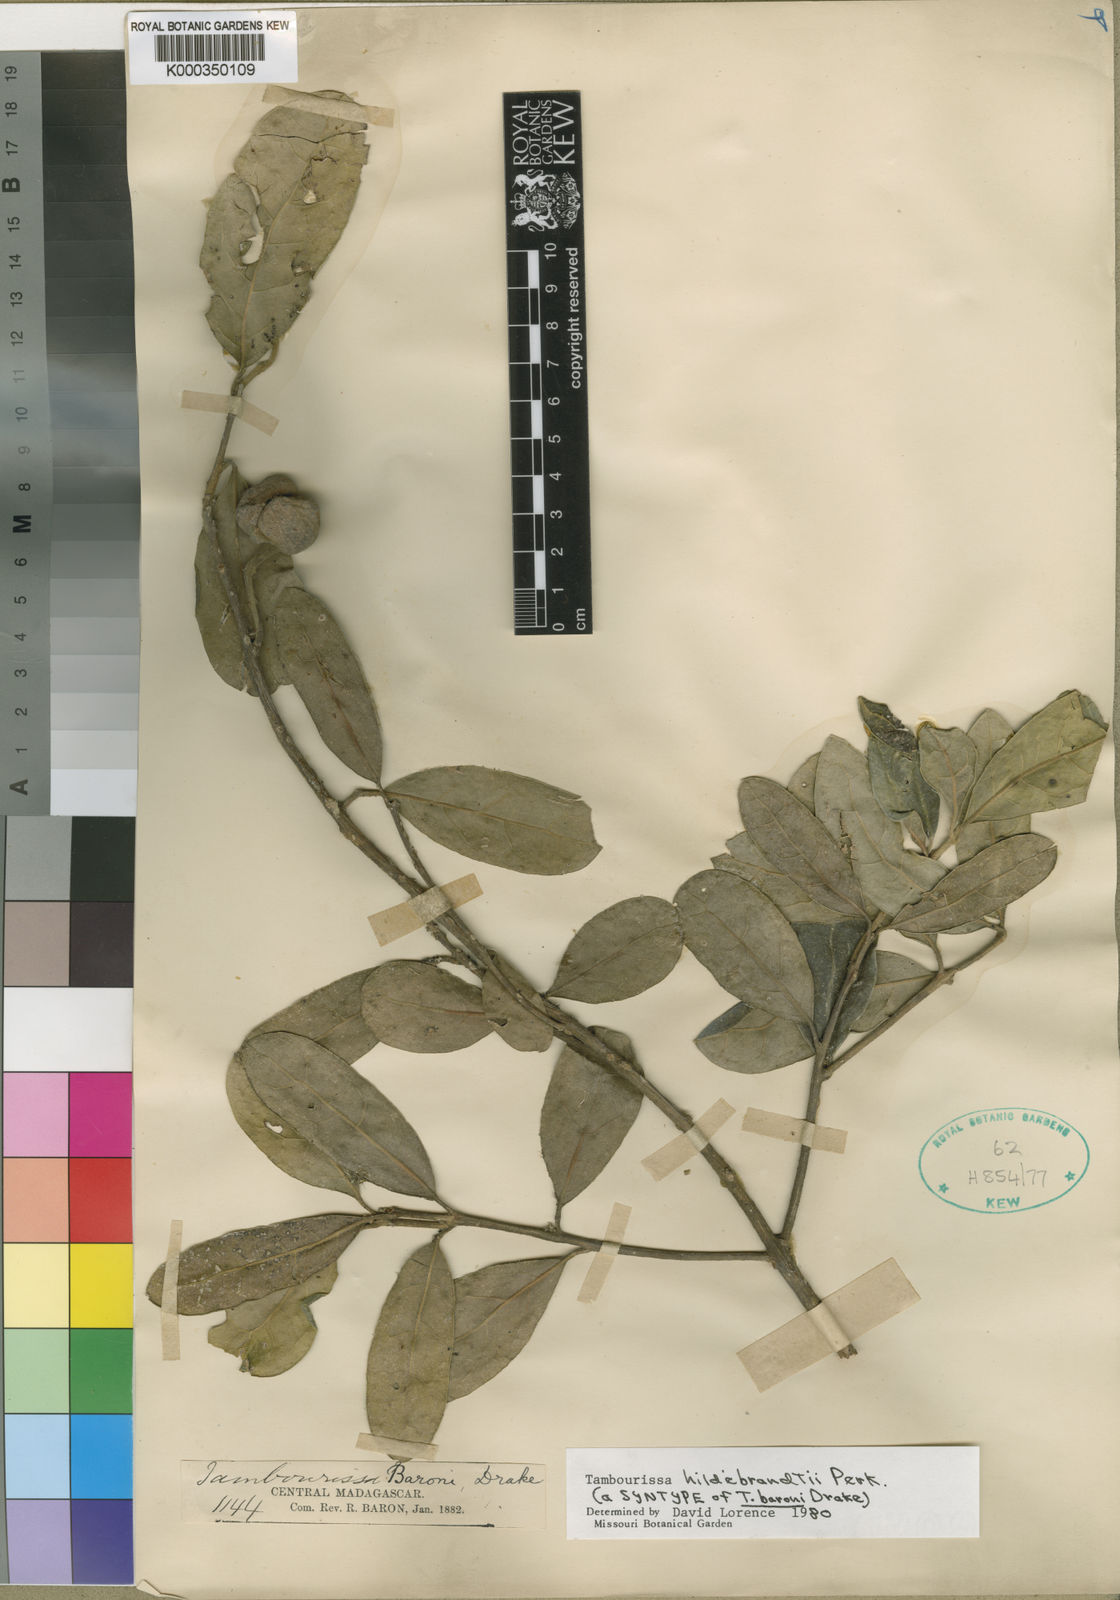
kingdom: Plantae
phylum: Tracheophyta
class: Magnoliopsida
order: Laurales
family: Monimiaceae
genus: Tambourissa
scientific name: Tambourissa hildebrandtii
